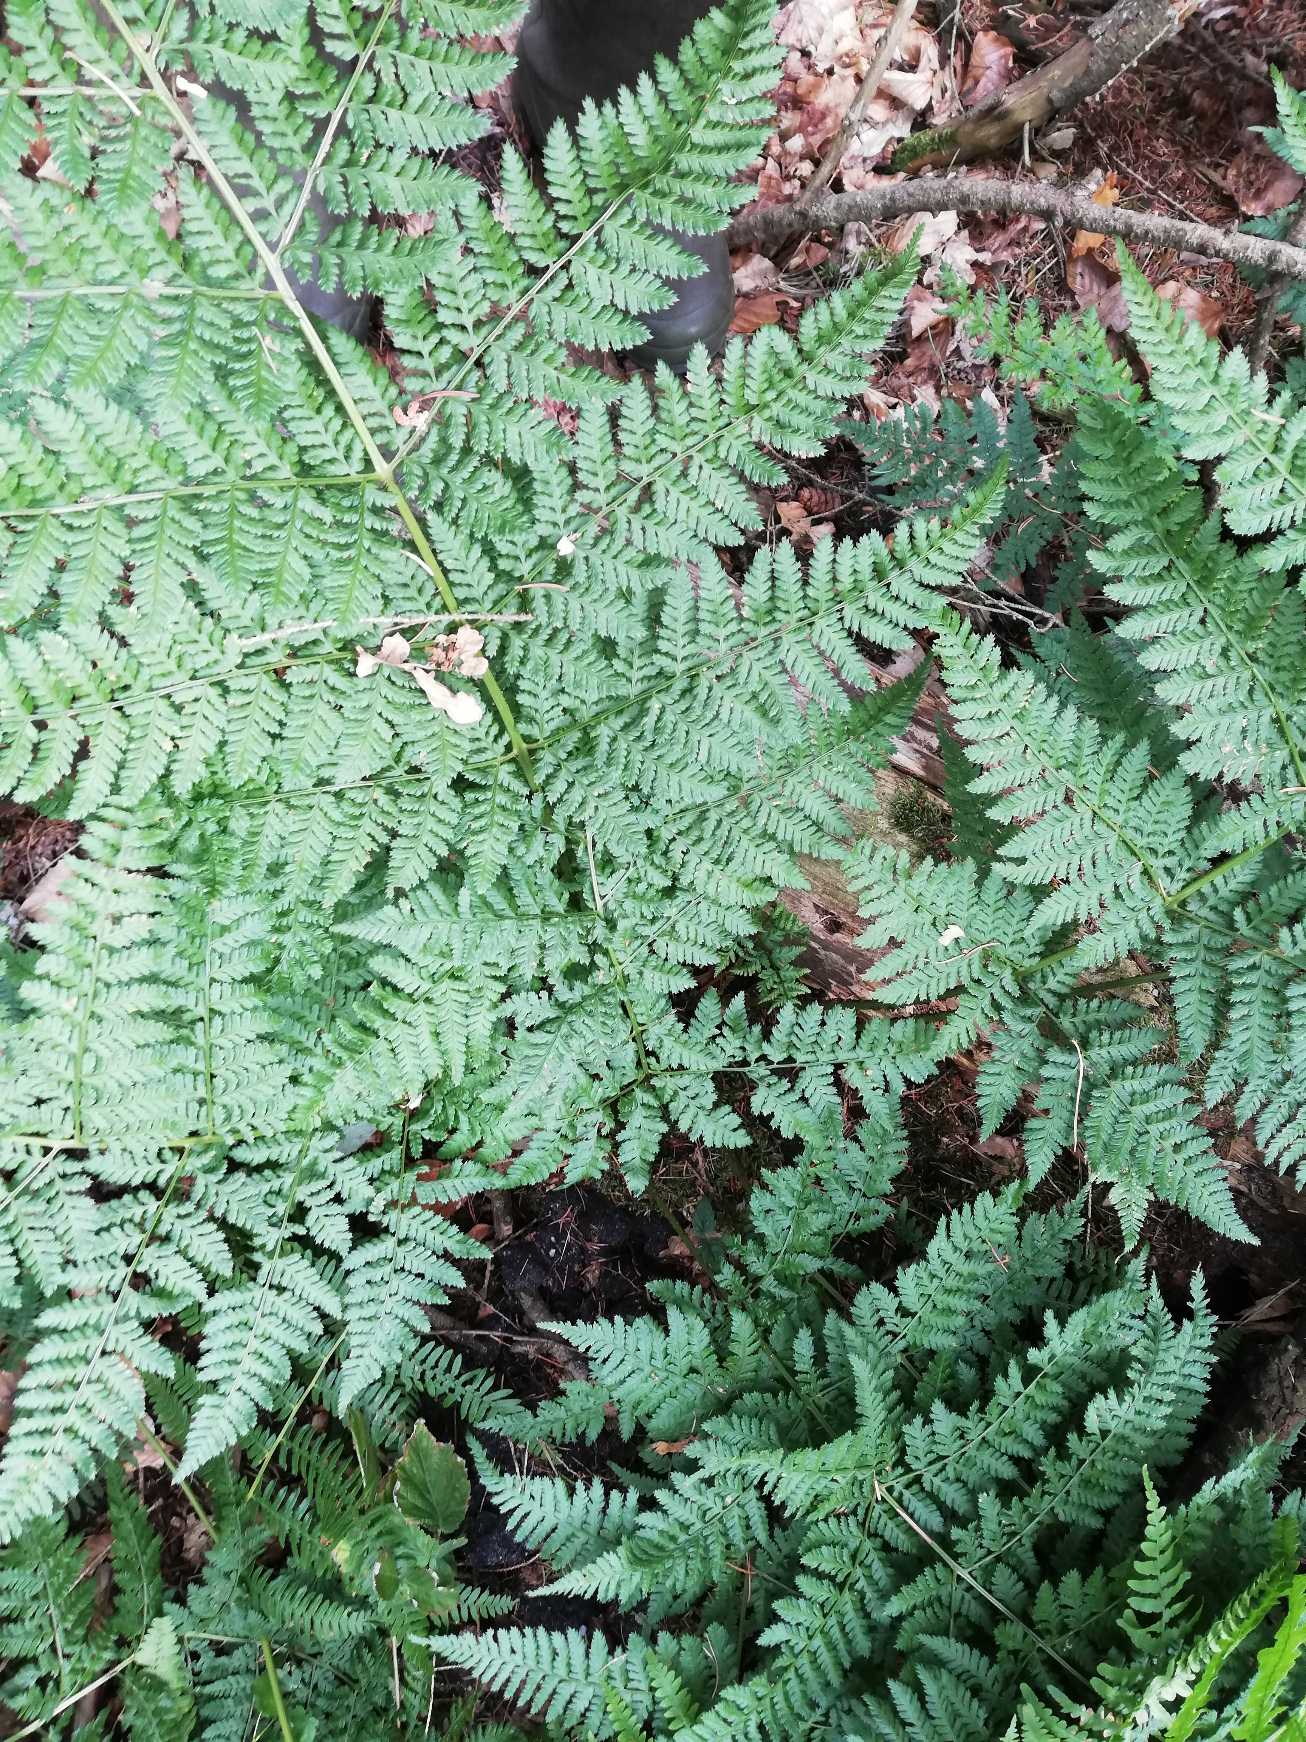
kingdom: Plantae
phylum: Tracheophyta
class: Polypodiopsida
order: Polypodiales
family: Dryopteridaceae
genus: Dryopteris
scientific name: Dryopteris dilatata
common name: Bredbladet mangeløv
